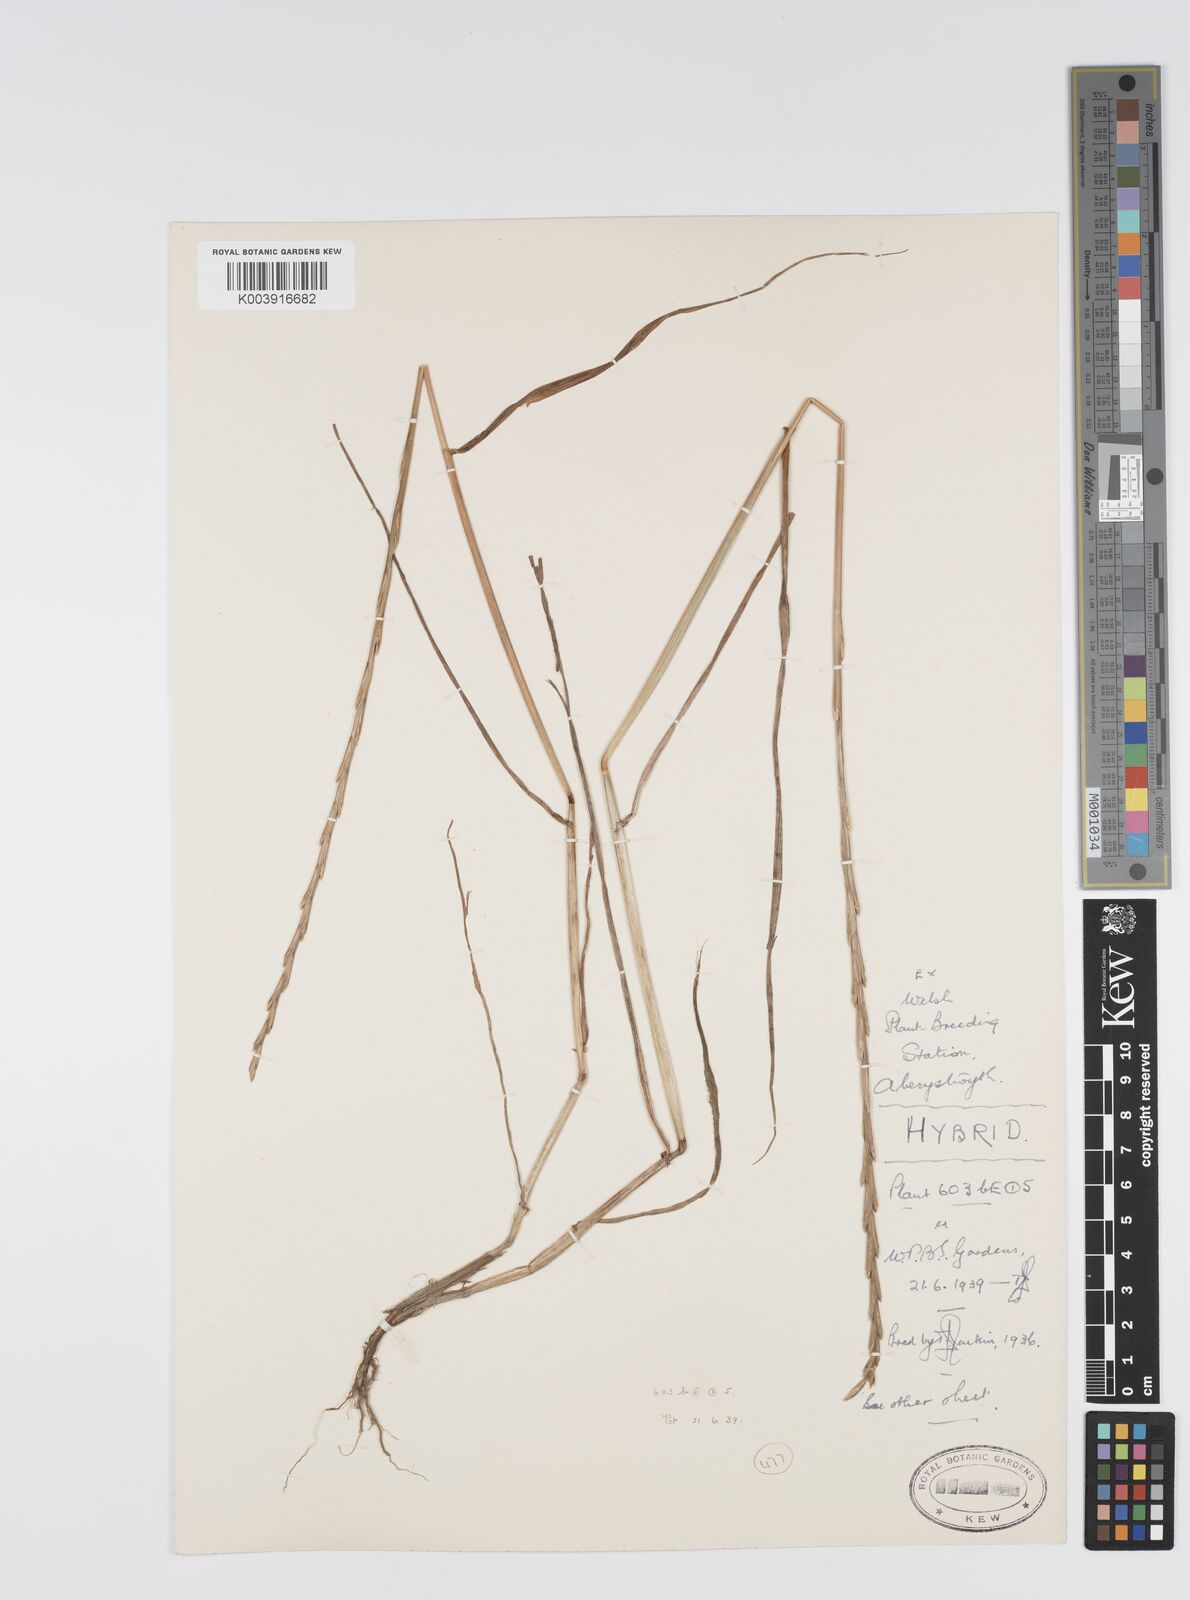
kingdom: Plantae
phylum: Tracheophyta
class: Liliopsida
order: Poales
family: Poaceae
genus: Lolium
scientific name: Lolium perenne
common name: Perennial ryegrass
